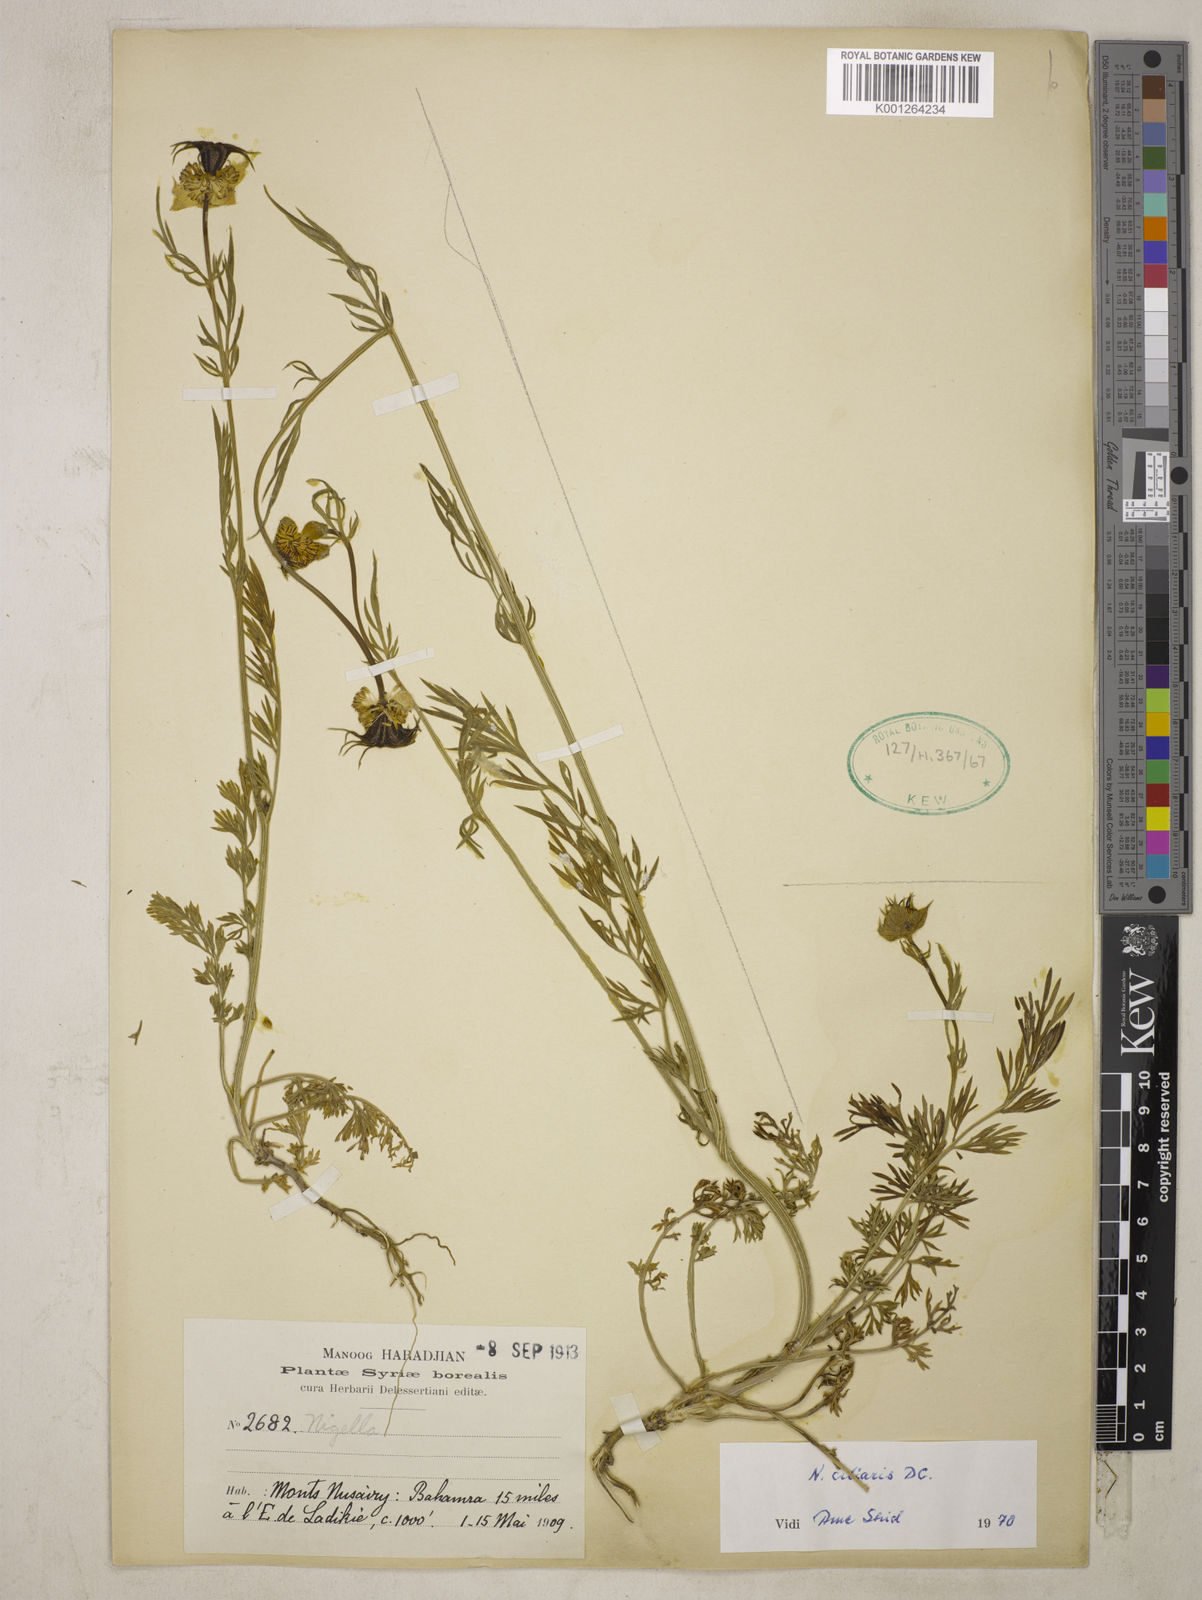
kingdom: Plantae
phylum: Tracheophyta
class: Magnoliopsida
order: Ranunculales
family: Ranunculaceae
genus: Nigella
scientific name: Nigella ciliaris
